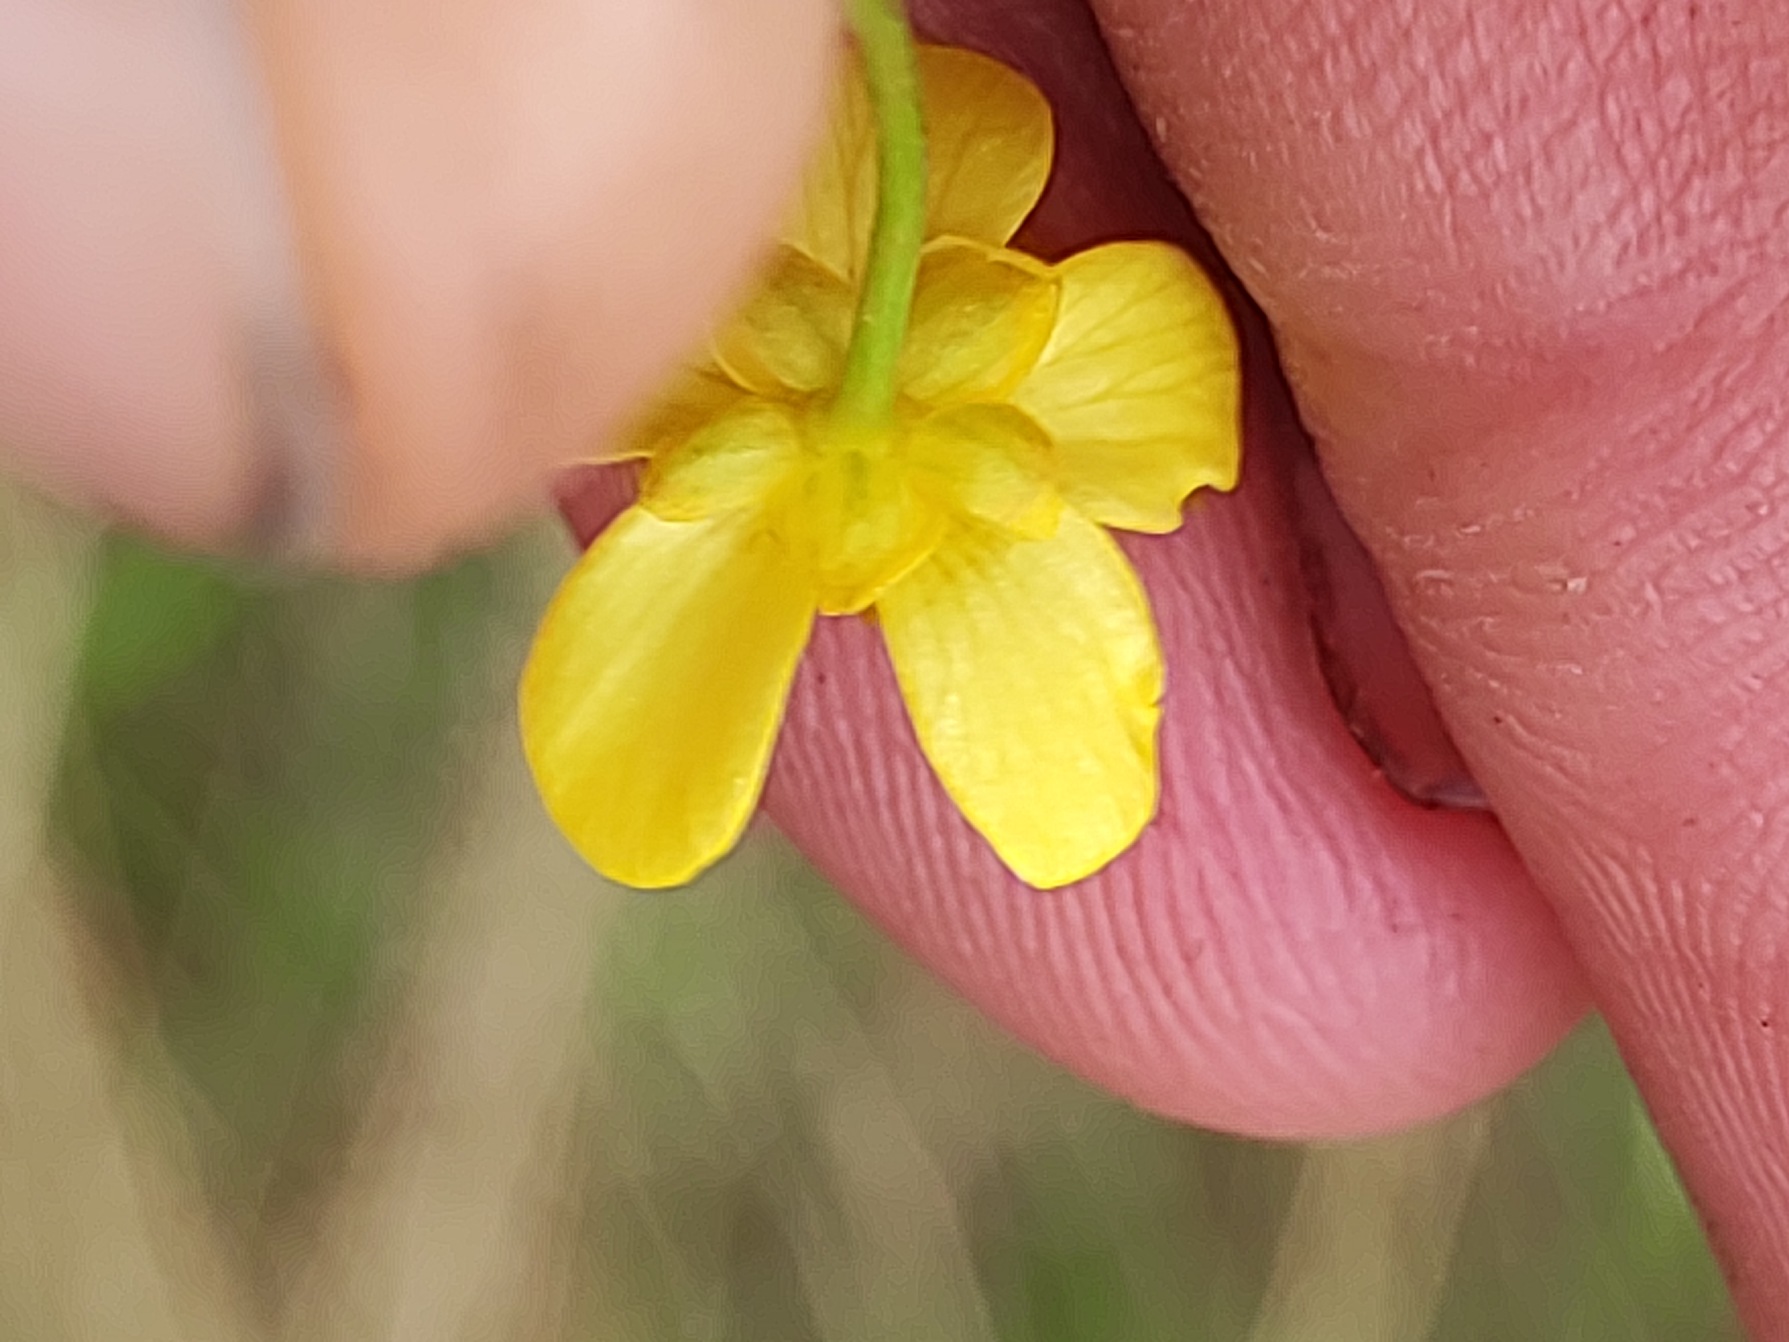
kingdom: Plantae
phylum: Tracheophyta
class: Magnoliopsida
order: Ranunculales
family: Ranunculaceae
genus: Ranunculus
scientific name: Ranunculus flammula
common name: Kær-ranunkel
